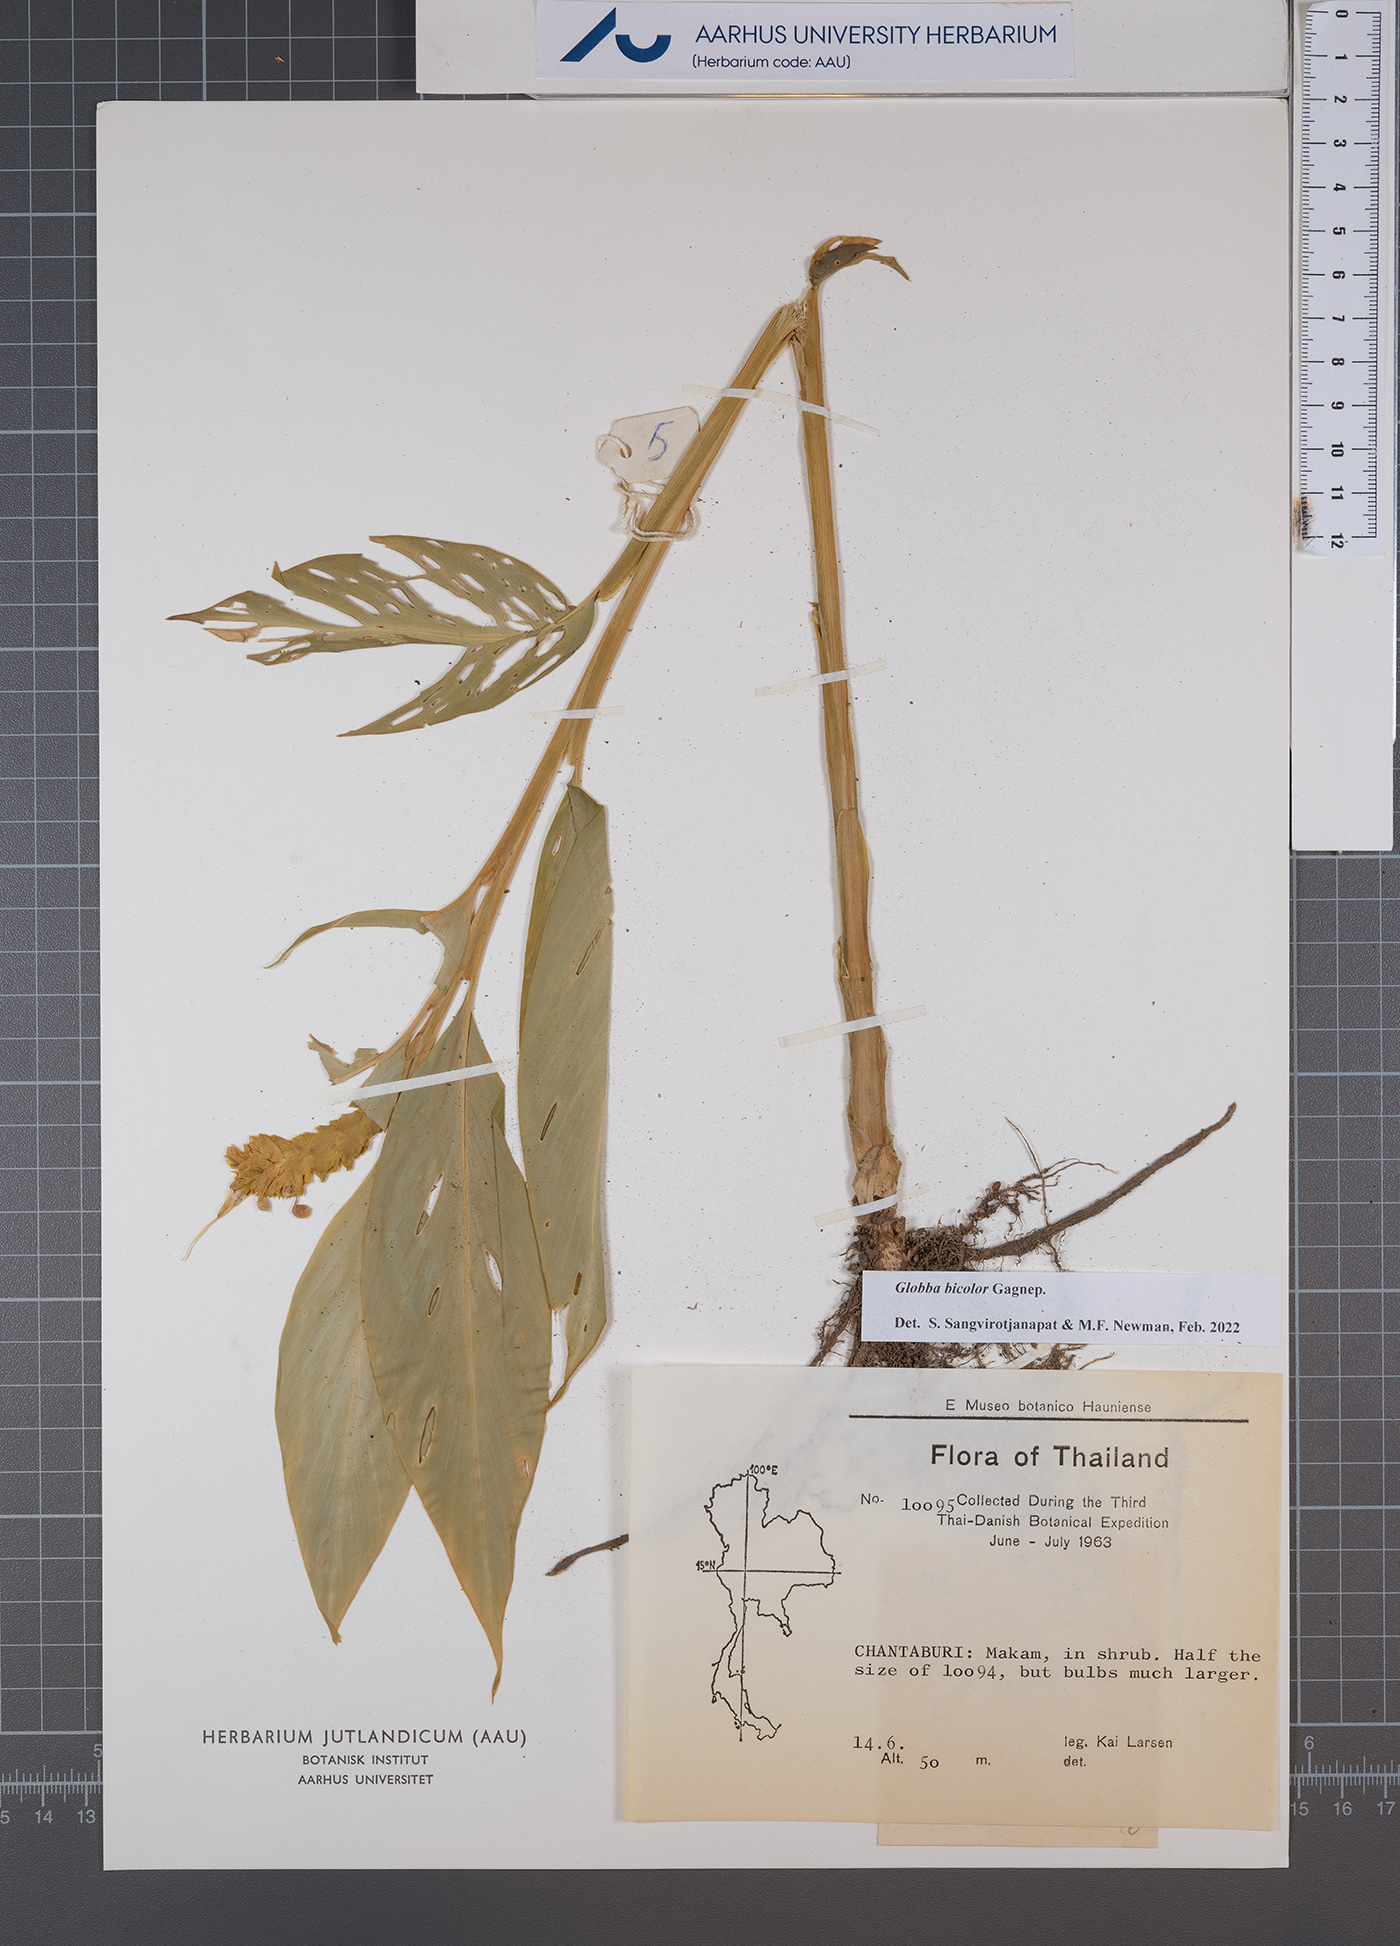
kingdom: Plantae
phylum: Tracheophyta
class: Liliopsida
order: Zingiberales
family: Zingiberaceae
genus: Globba
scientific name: Globba bicolor
